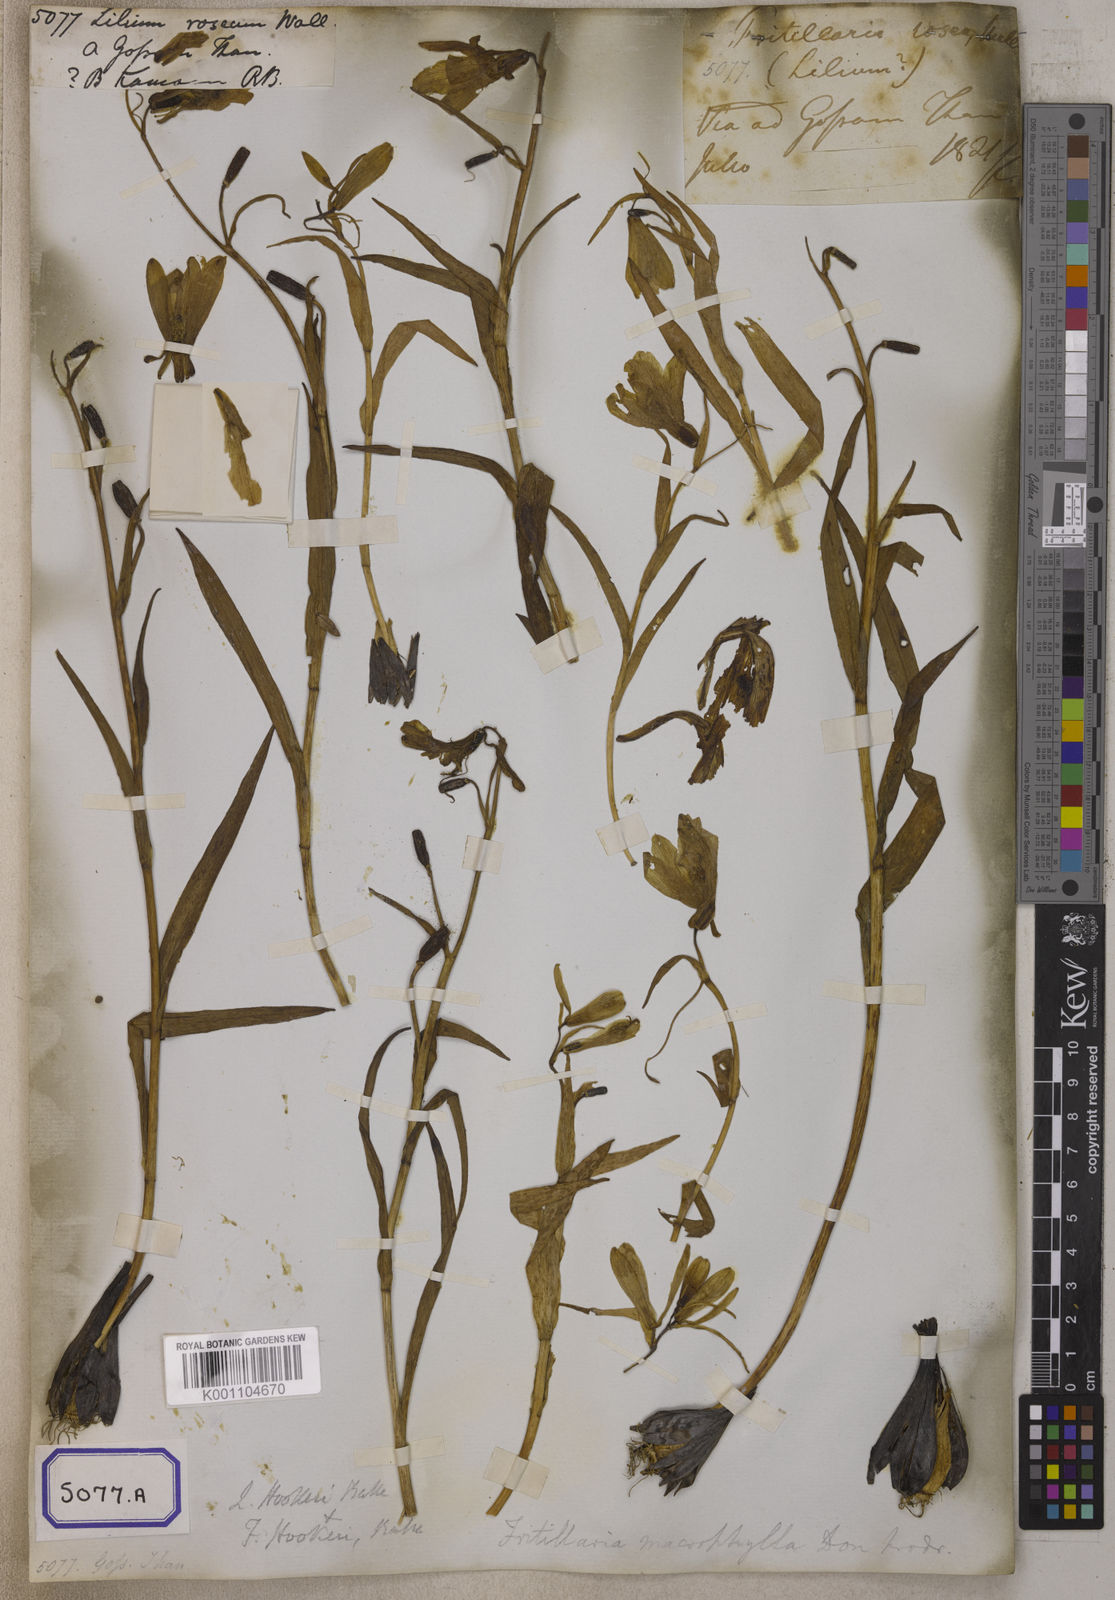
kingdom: Plantae
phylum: Tracheophyta
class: Liliopsida
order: Liliales
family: Liliaceae
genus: Lilium
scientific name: Lilium
